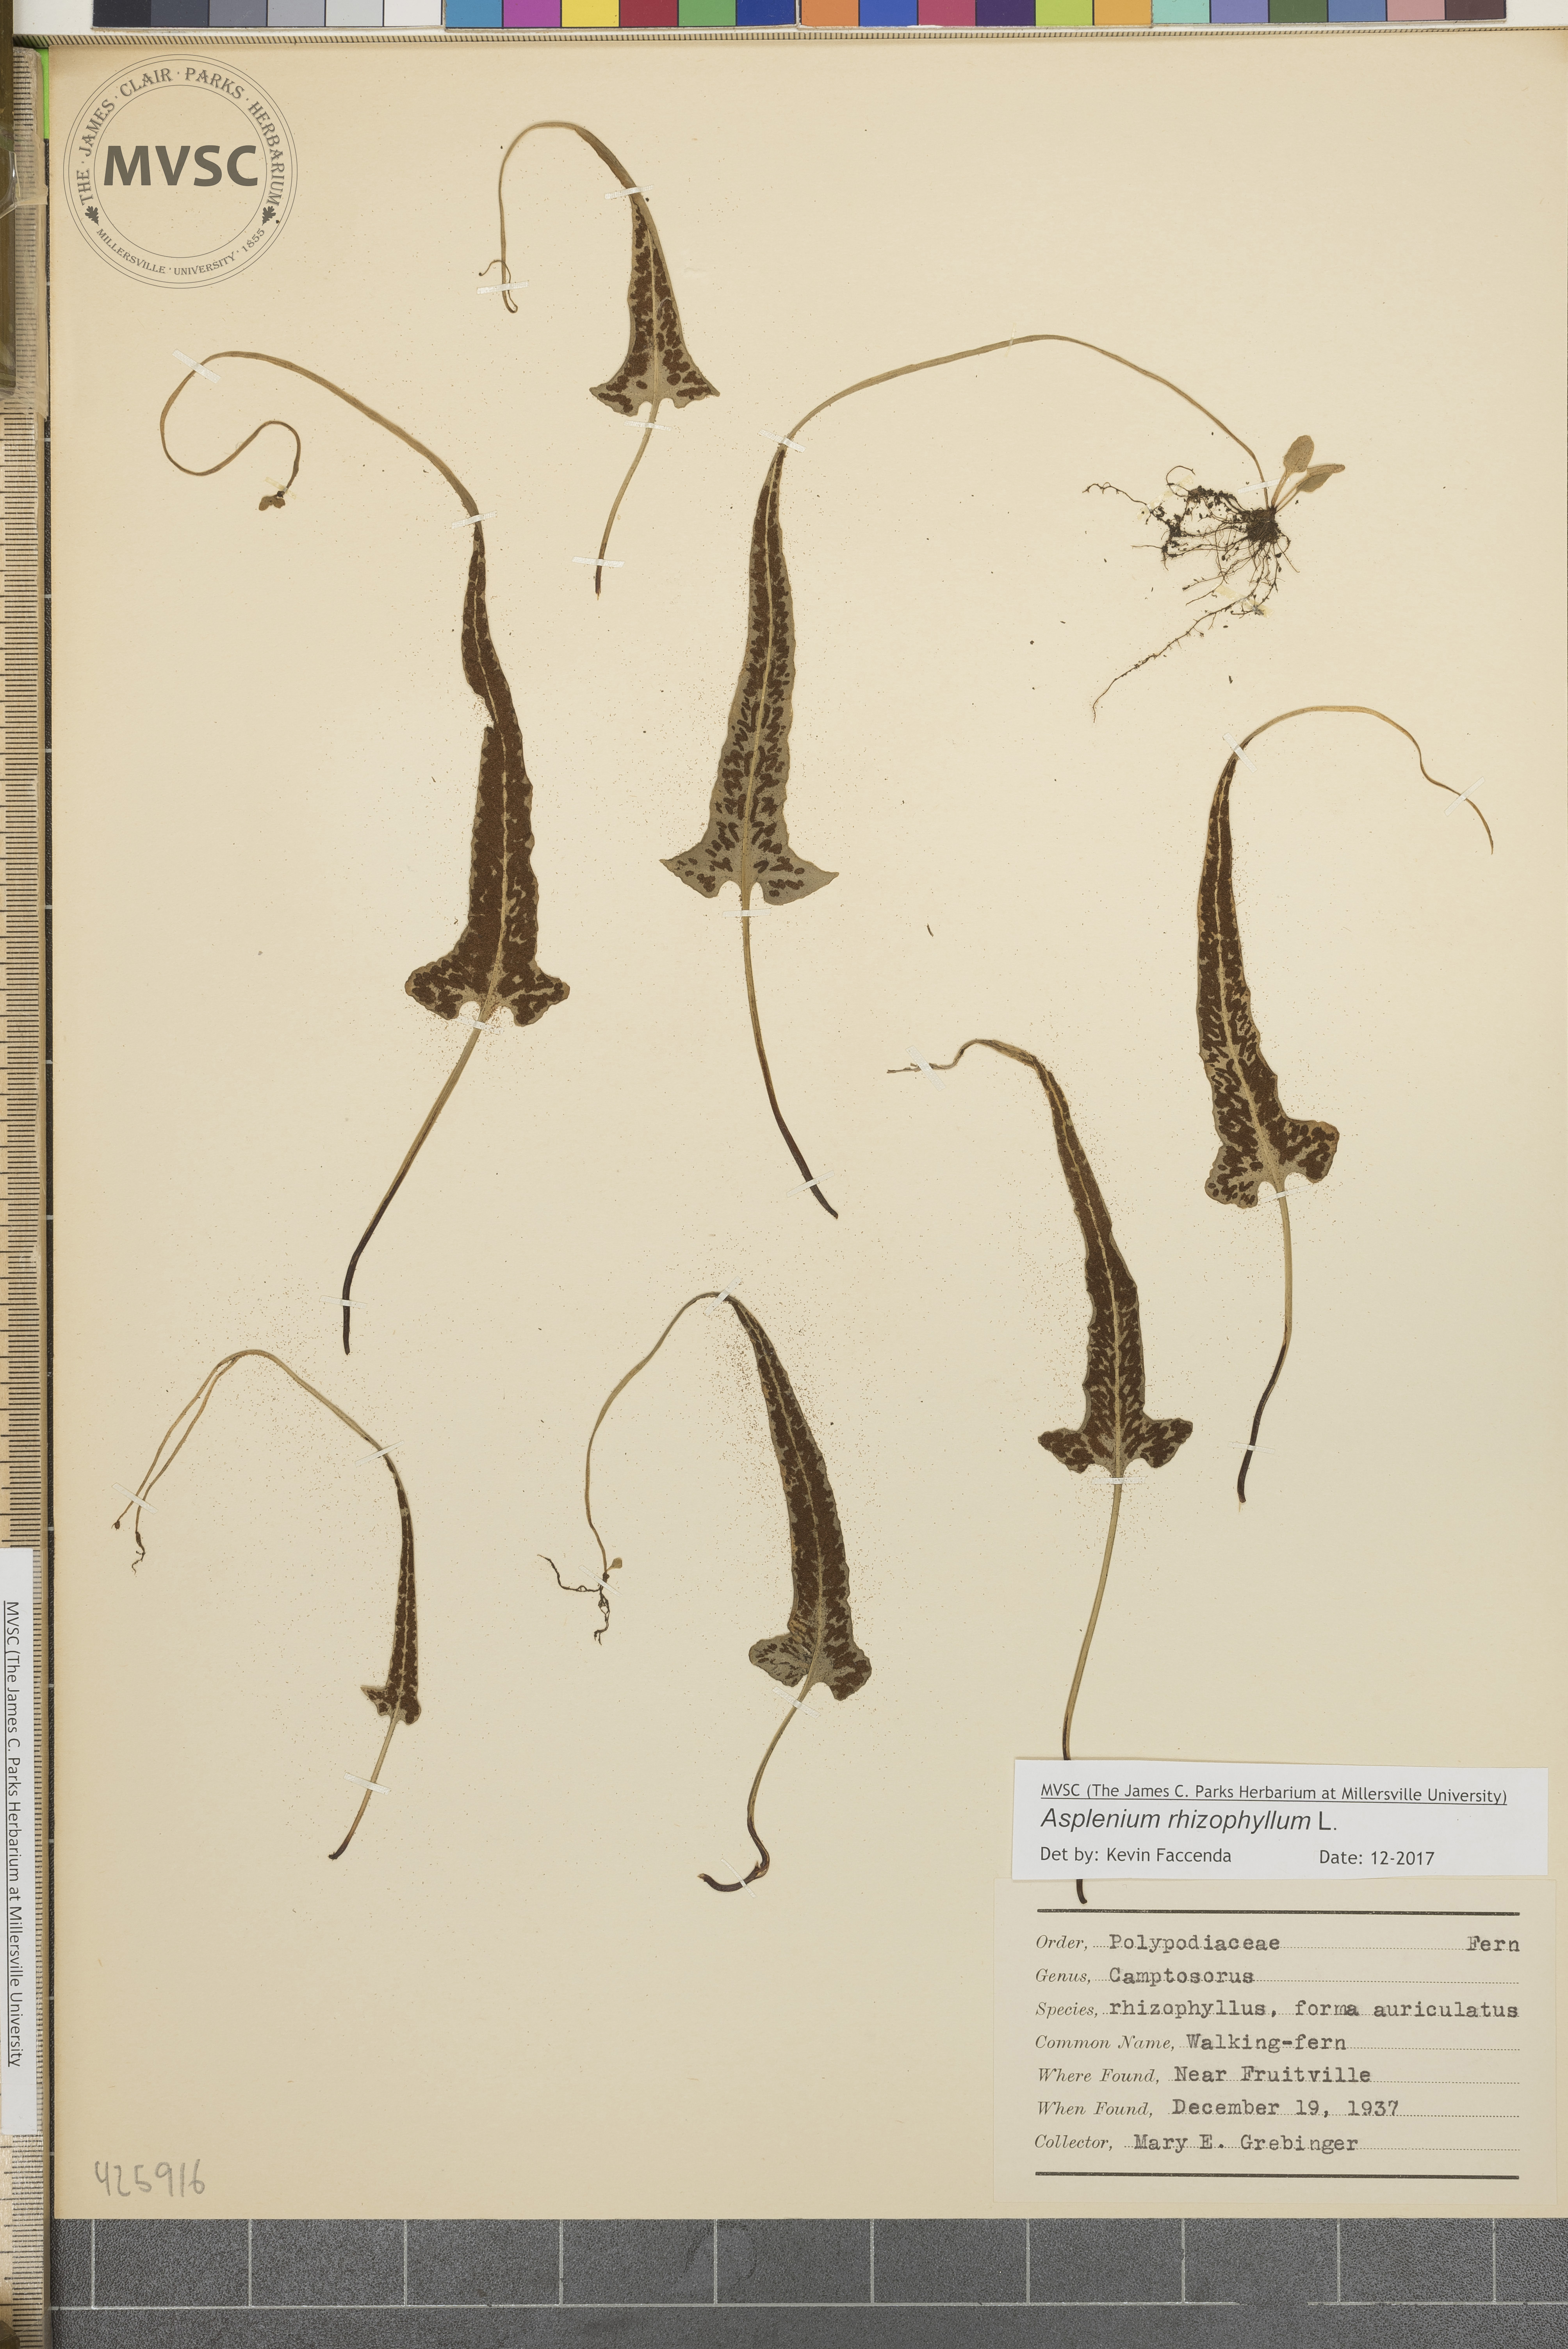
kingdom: Plantae
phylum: Tracheophyta
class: Polypodiopsida
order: Polypodiales
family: Aspleniaceae
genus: Asplenium
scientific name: Asplenium rhizophyllum
